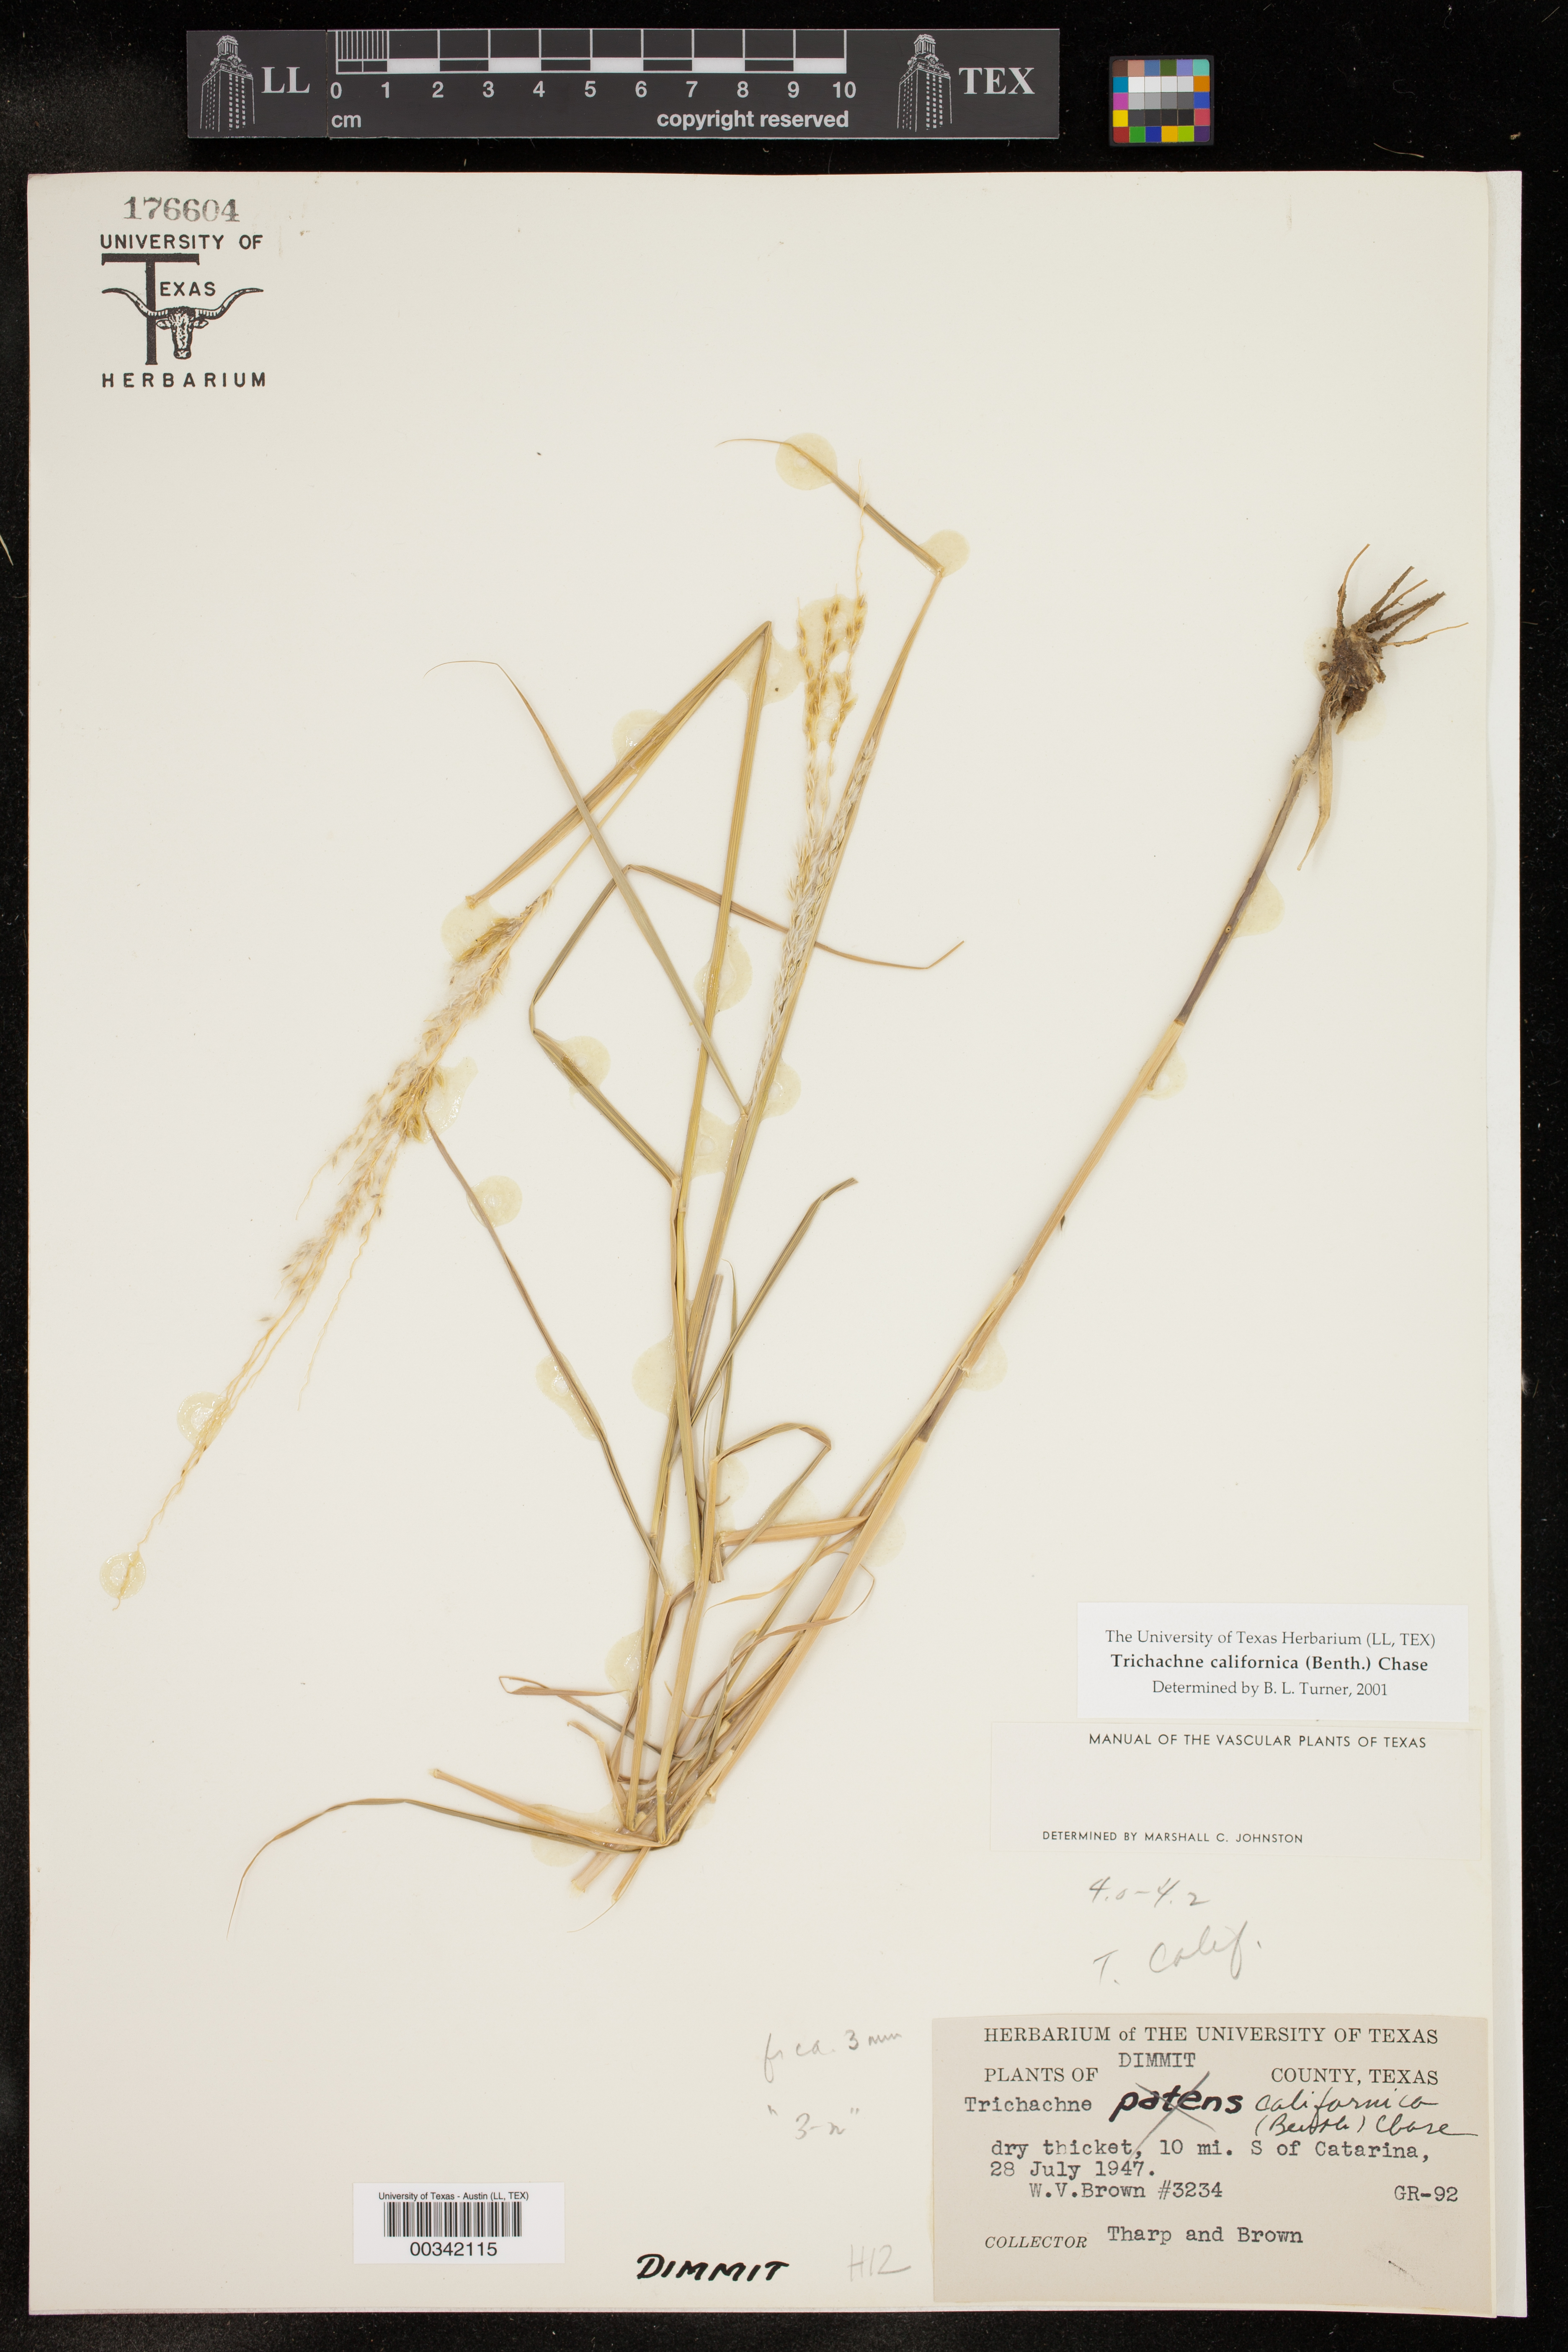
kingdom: Plantae
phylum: Tracheophyta
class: Liliopsida
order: Poales
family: Poaceae
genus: Digitaria
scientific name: Digitaria californica
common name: Arizona cottontop
